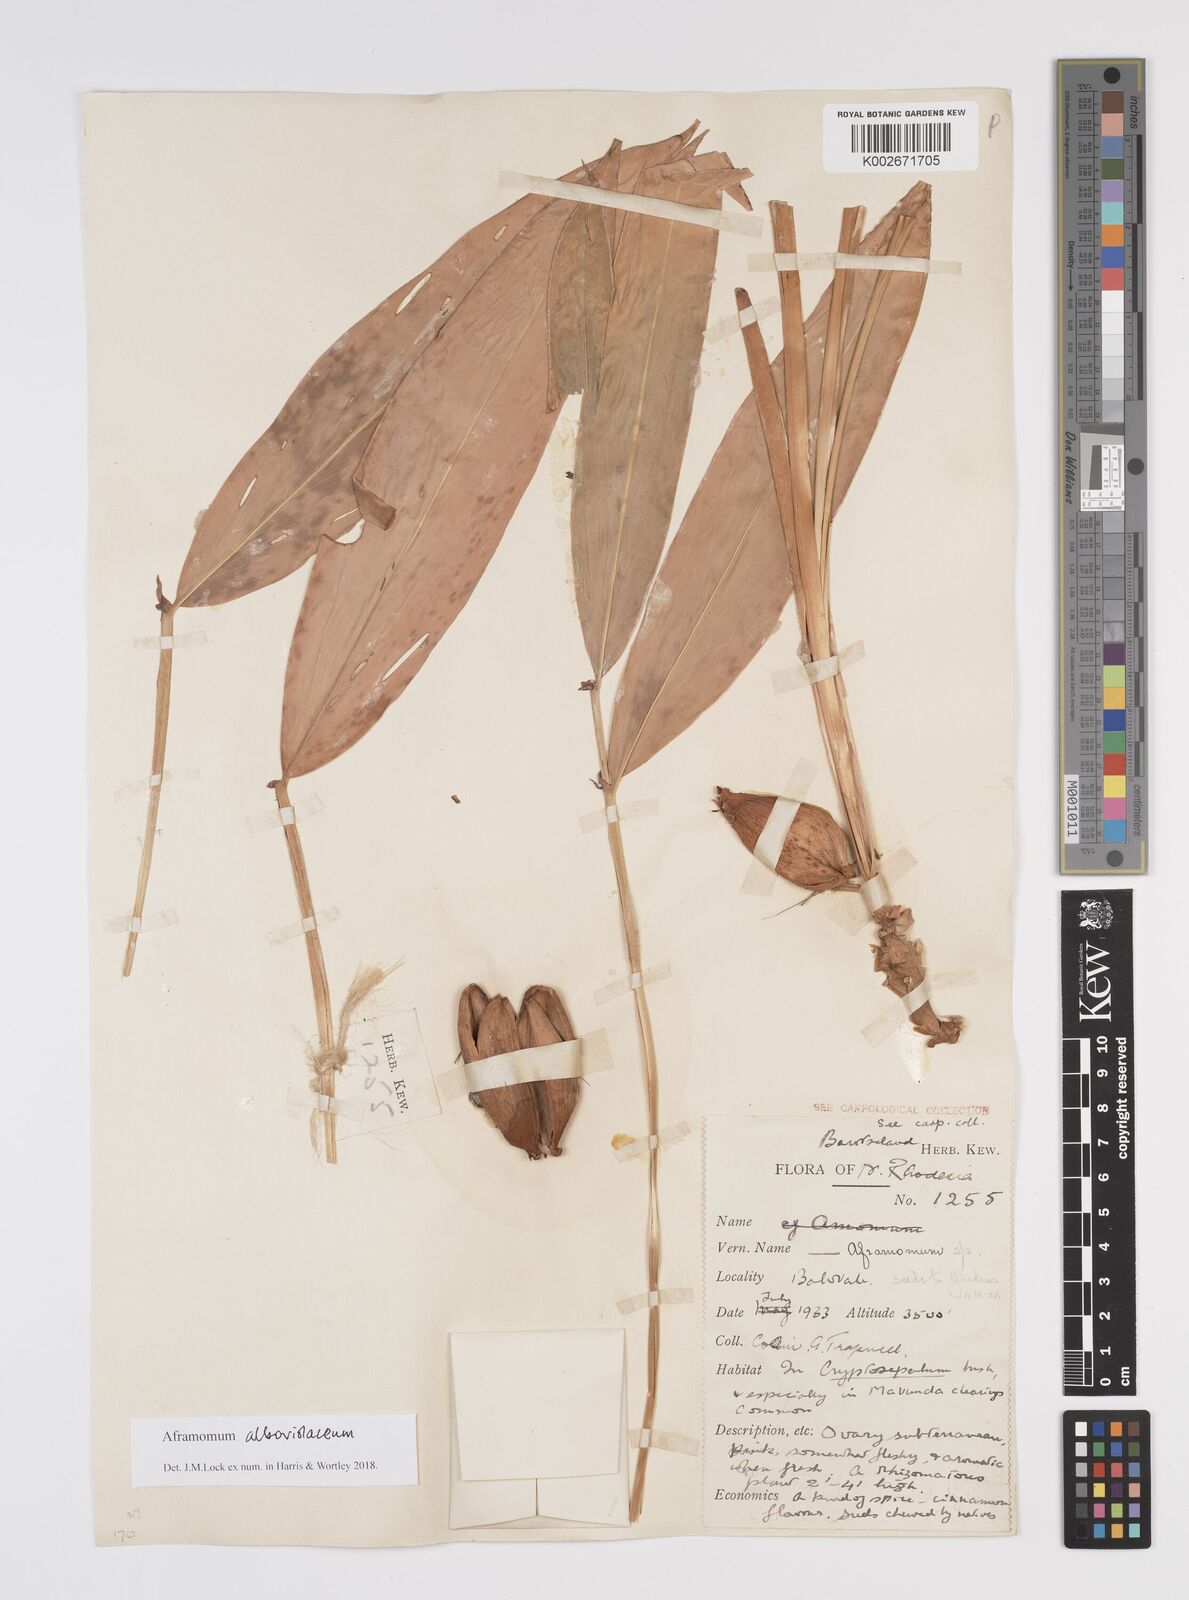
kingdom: Plantae
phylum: Tracheophyta
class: Liliopsida
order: Zingiberales
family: Zingiberaceae
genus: Aframomum
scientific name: Aframomum alboviolaceum
